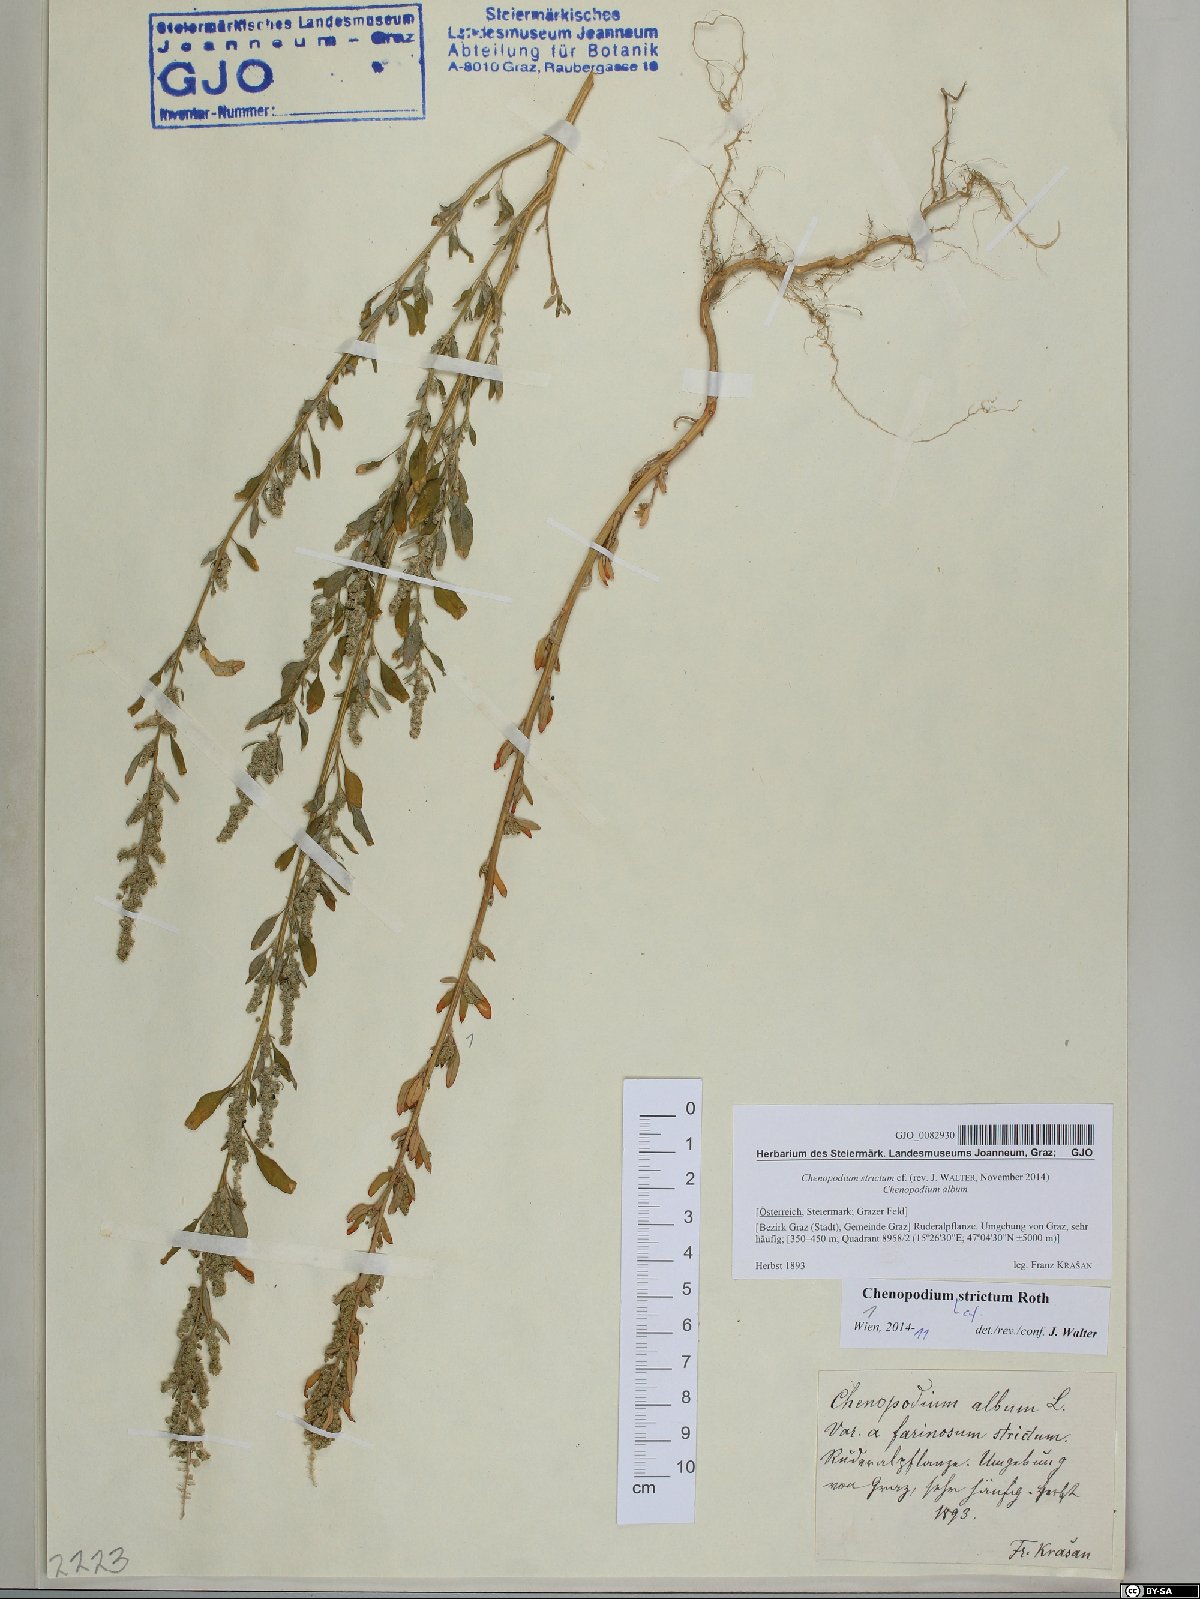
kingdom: Plantae
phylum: Tracheophyta
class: Magnoliopsida
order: Caryophyllales
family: Amaranthaceae
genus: Chenopodium
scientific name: Chenopodium album
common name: Fat-hen
